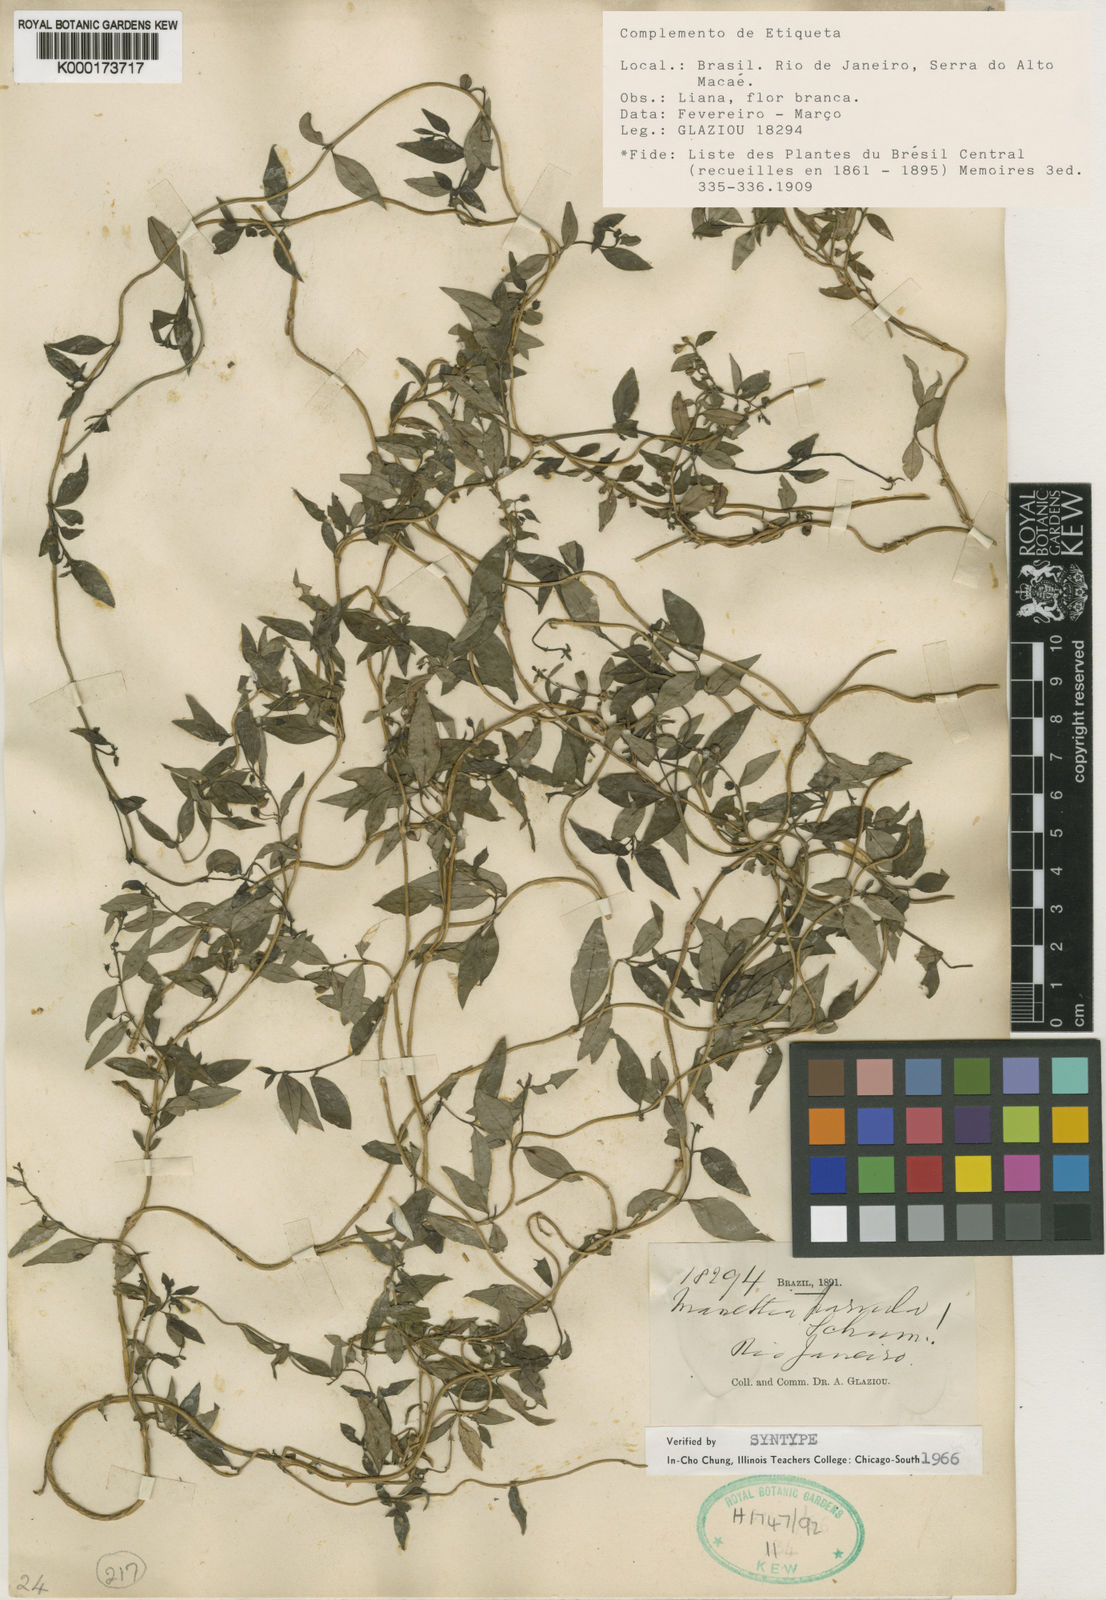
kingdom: Plantae
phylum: Tracheophyta
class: Magnoliopsida
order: Gentianales
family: Rubiaceae
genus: Manettia
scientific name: Manettia parvula
